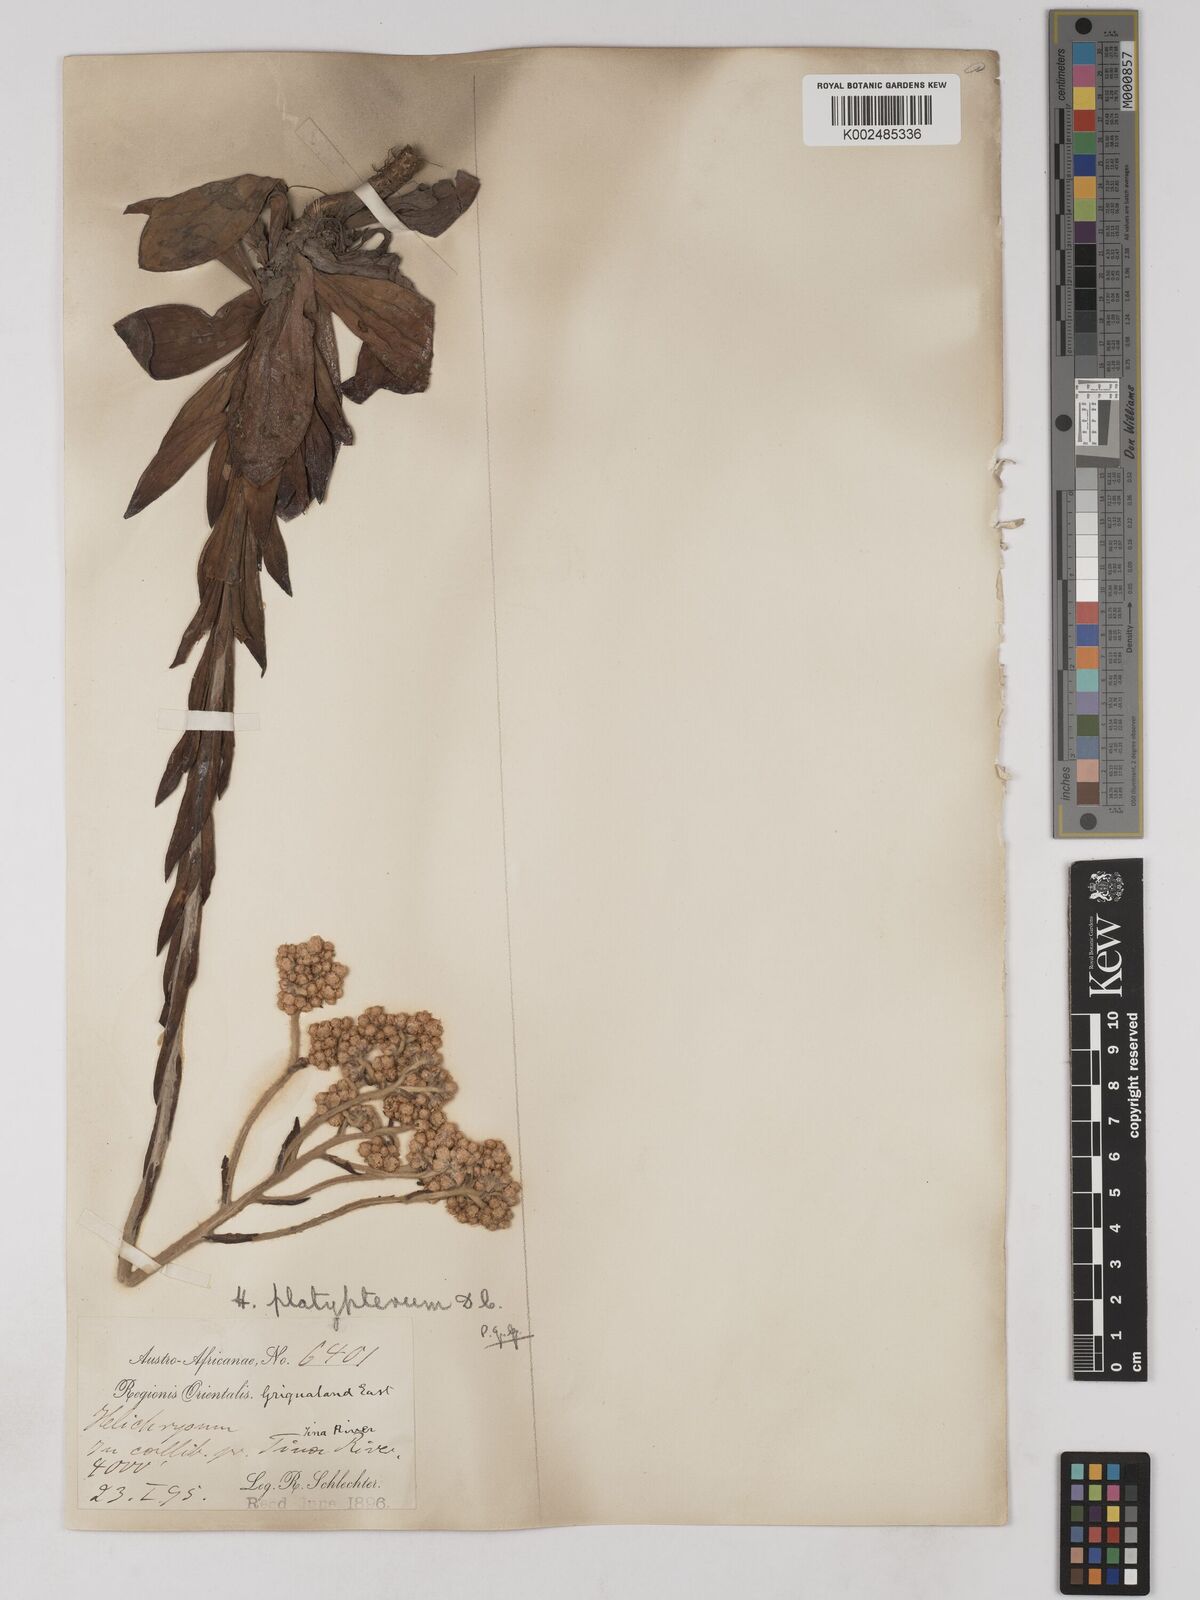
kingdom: Plantae
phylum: Tracheophyta
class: Magnoliopsida
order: Asterales
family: Asteraceae
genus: Helichrysum
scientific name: Helichrysum platypterum
